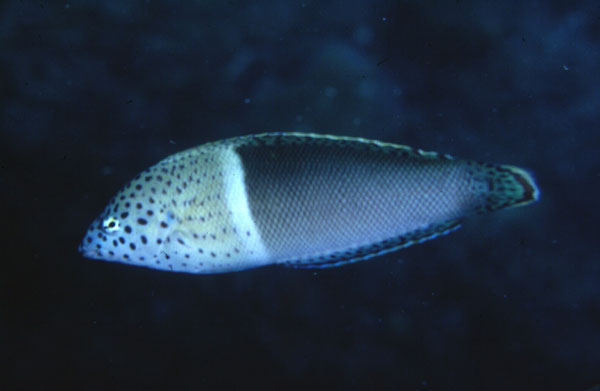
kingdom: Animalia
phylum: Chordata
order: Perciformes
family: Labridae
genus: Coris
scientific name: Coris aygula
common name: Clown coris
